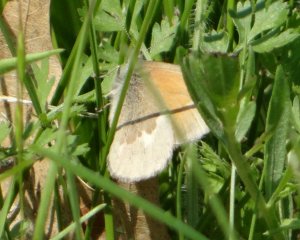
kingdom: Animalia
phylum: Arthropoda
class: Insecta
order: Lepidoptera
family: Nymphalidae
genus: Coenonympha
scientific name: Coenonympha tullia
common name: Large Heath
